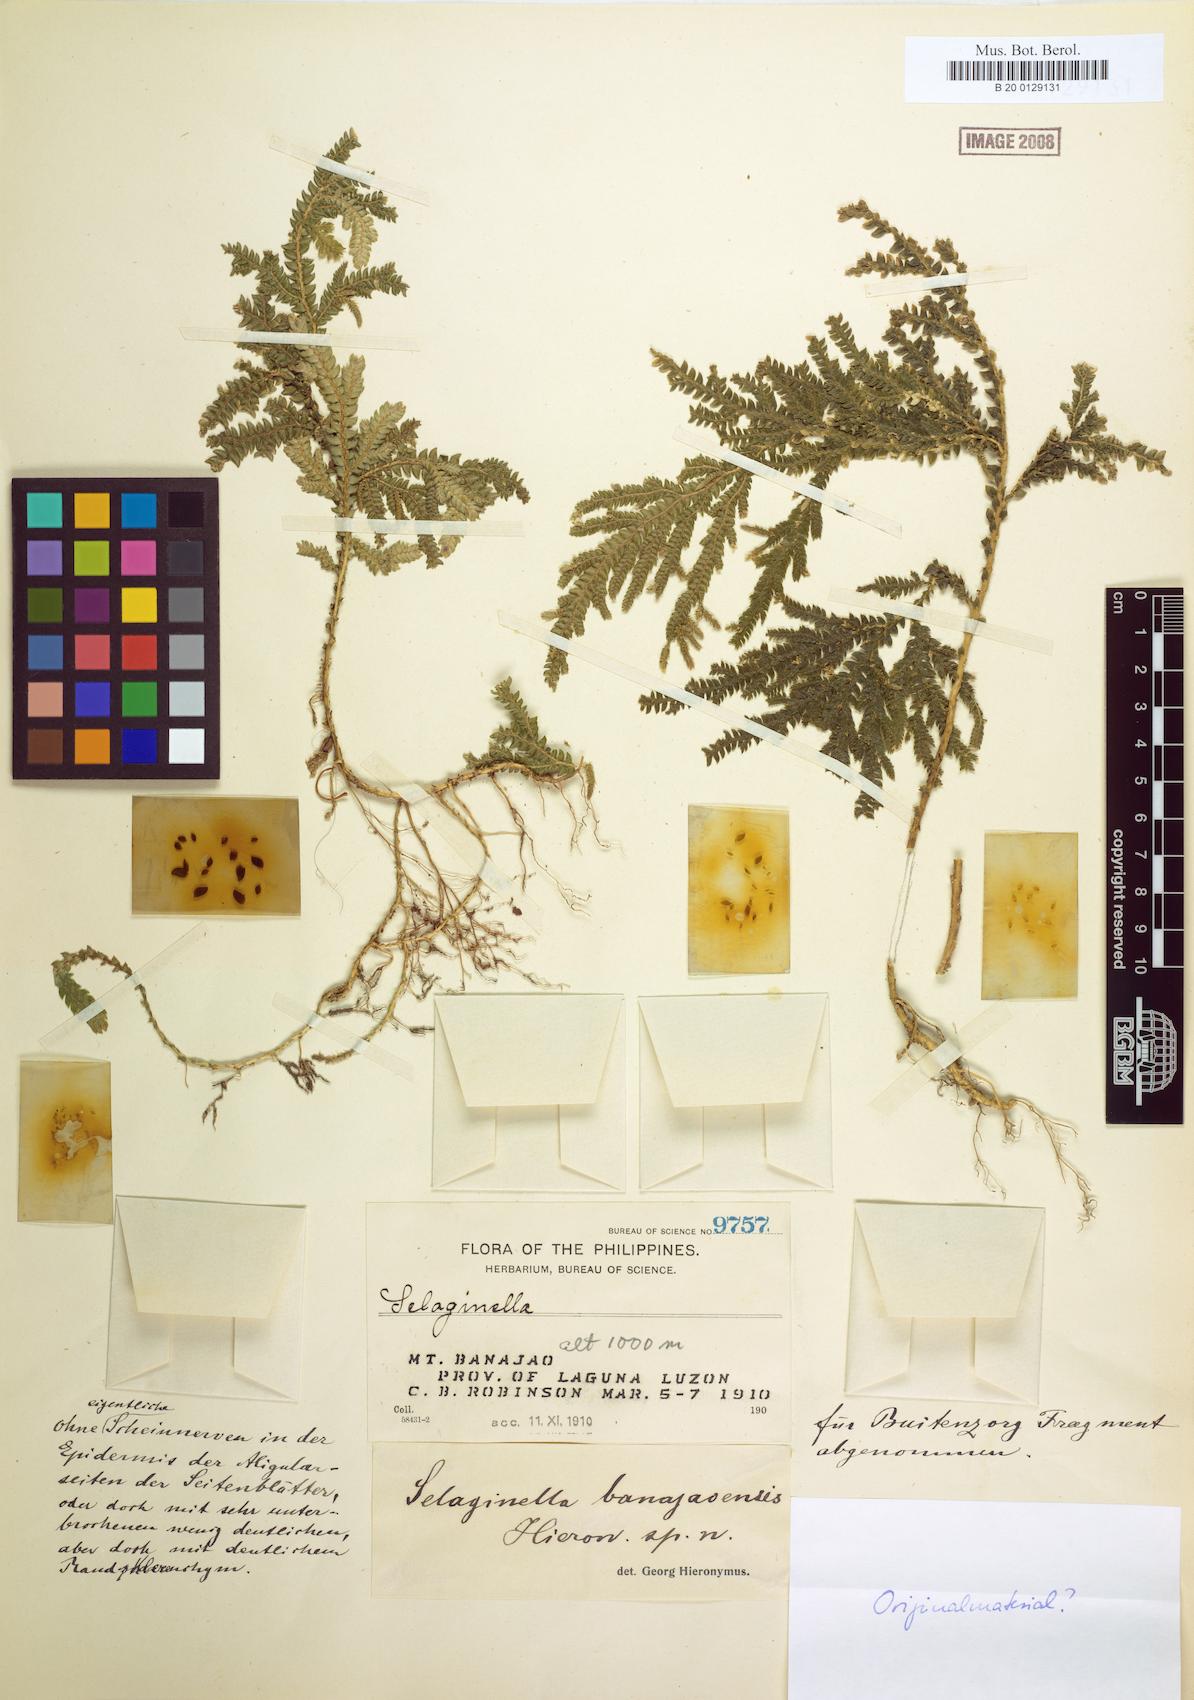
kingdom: Plantae
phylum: Tracheophyta
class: Lycopodiopsida
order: Selaginellales
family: Selaginellaceae
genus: Selaginella
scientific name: Selaginella jagorii
